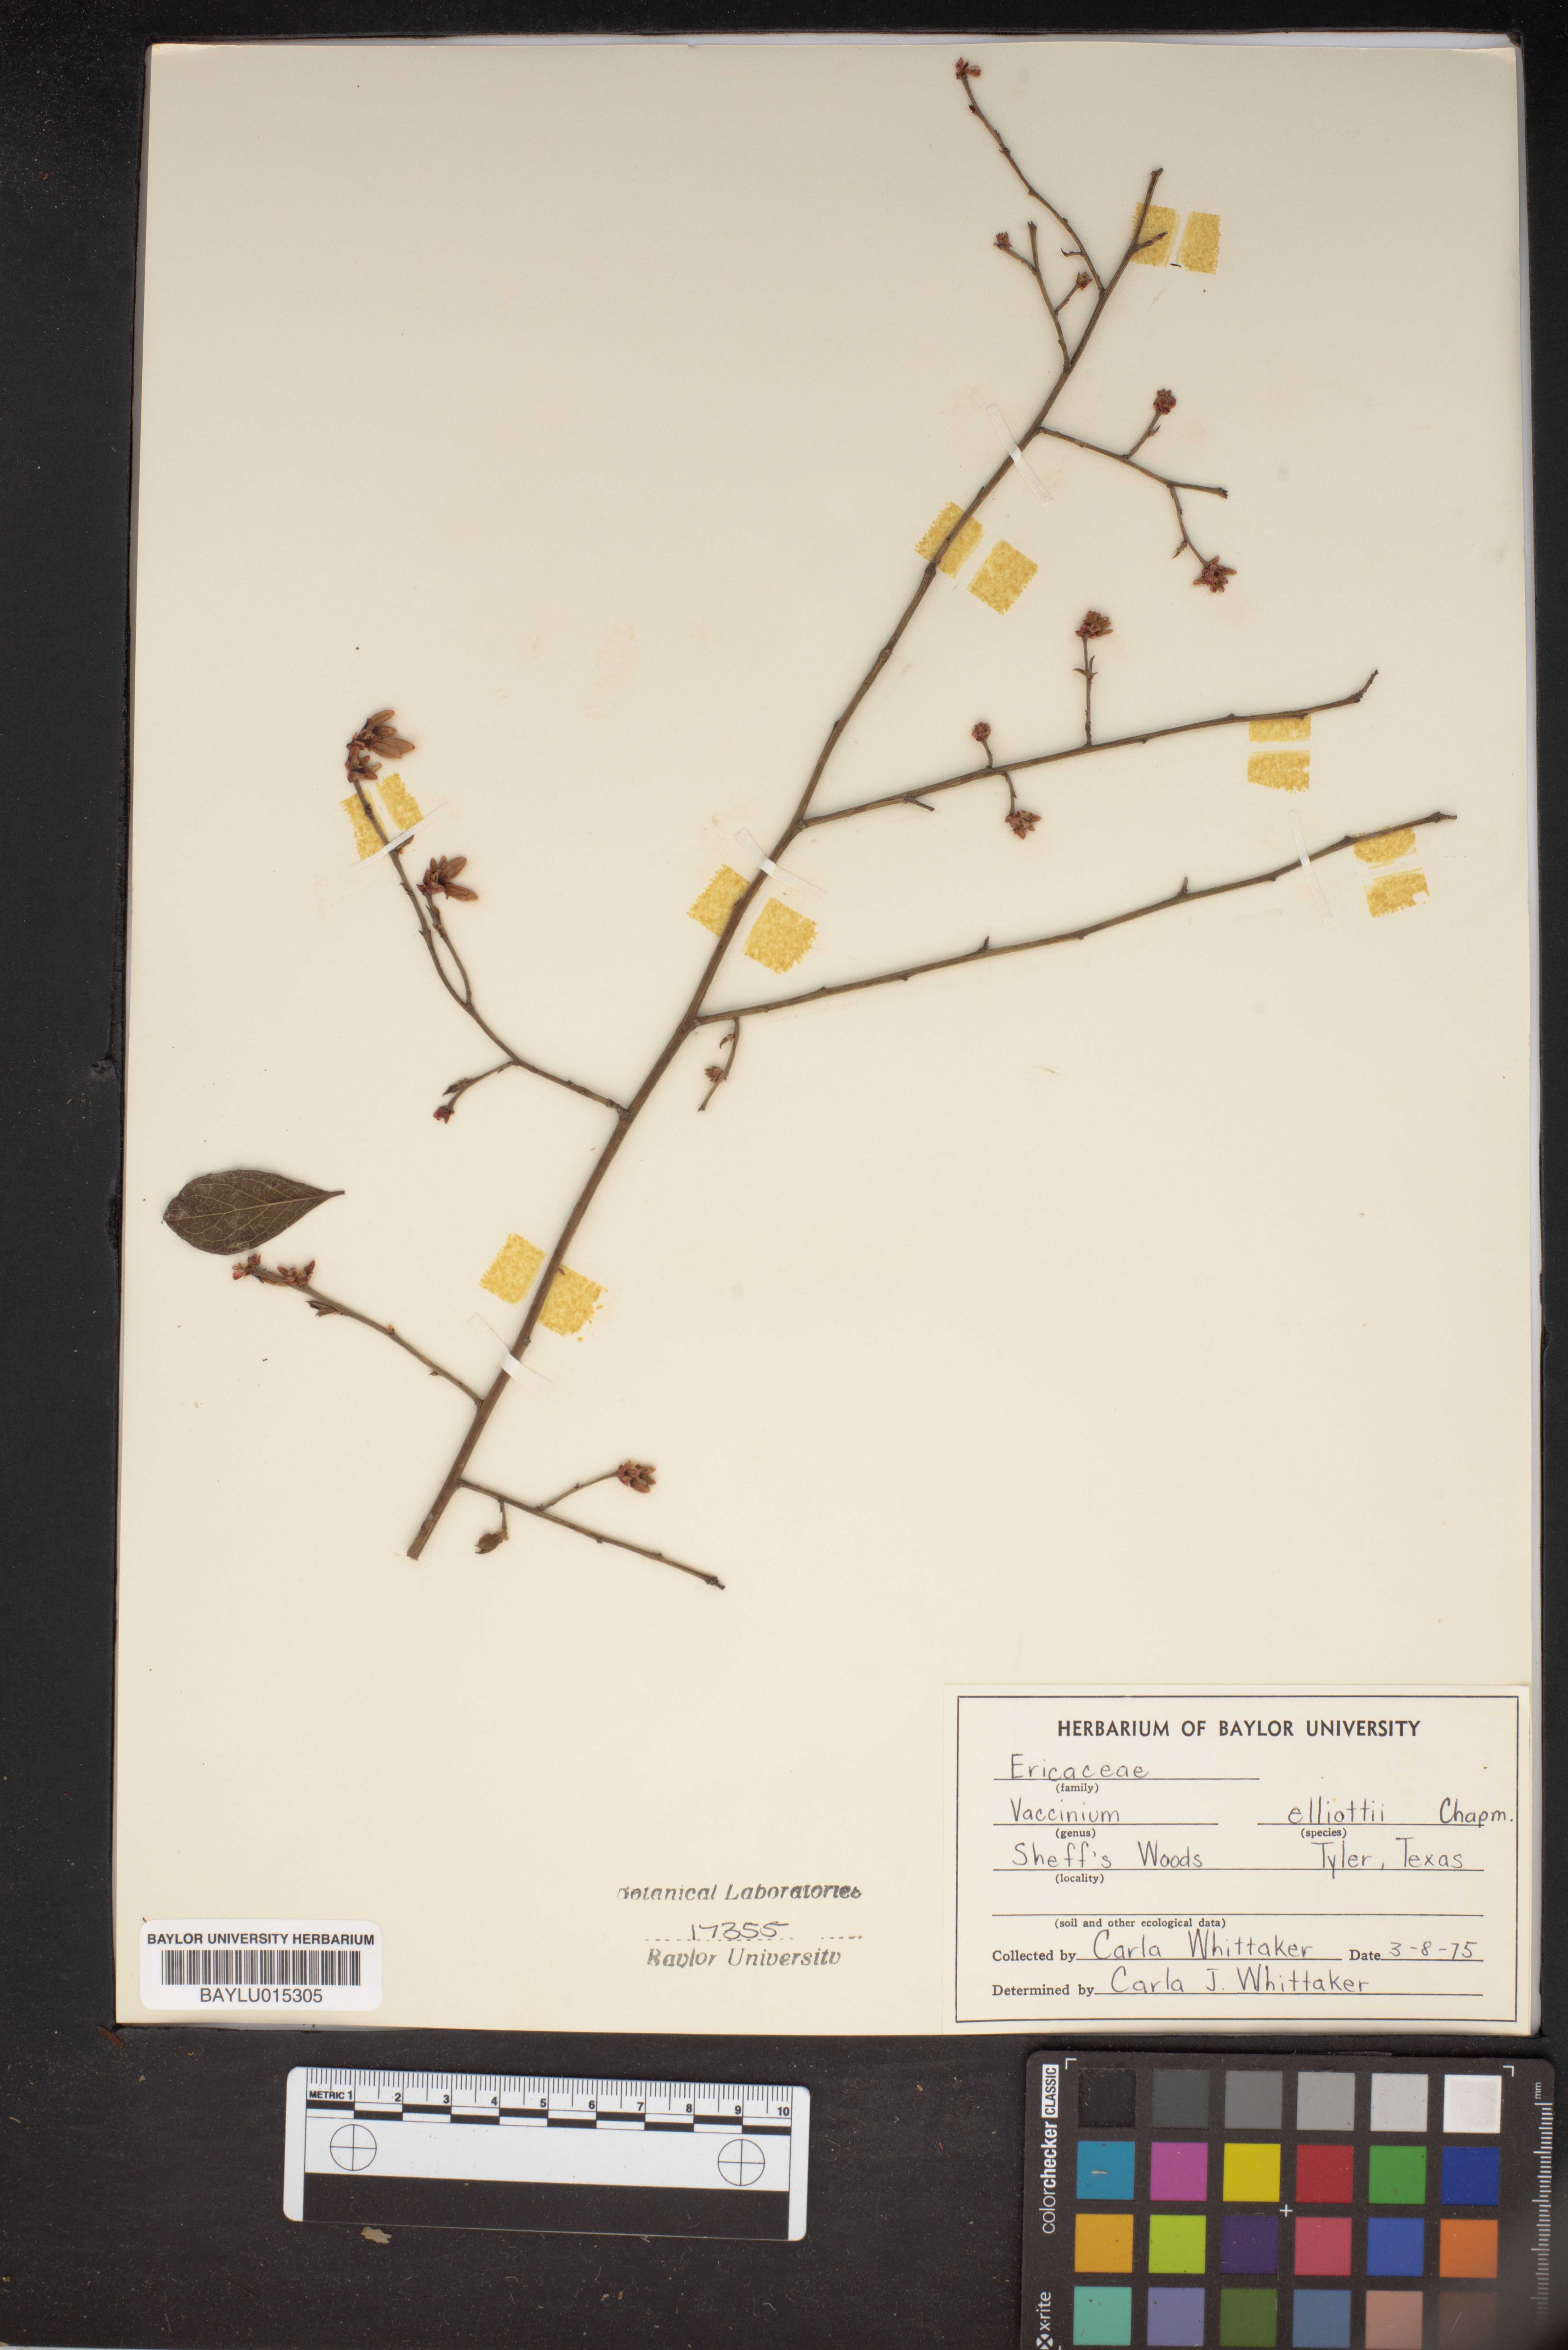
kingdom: Plantae
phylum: Tracheophyta
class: Magnoliopsida
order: Ericales
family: Ericaceae
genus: Vaccinium
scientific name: Vaccinium corymbosum
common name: Blueberry
